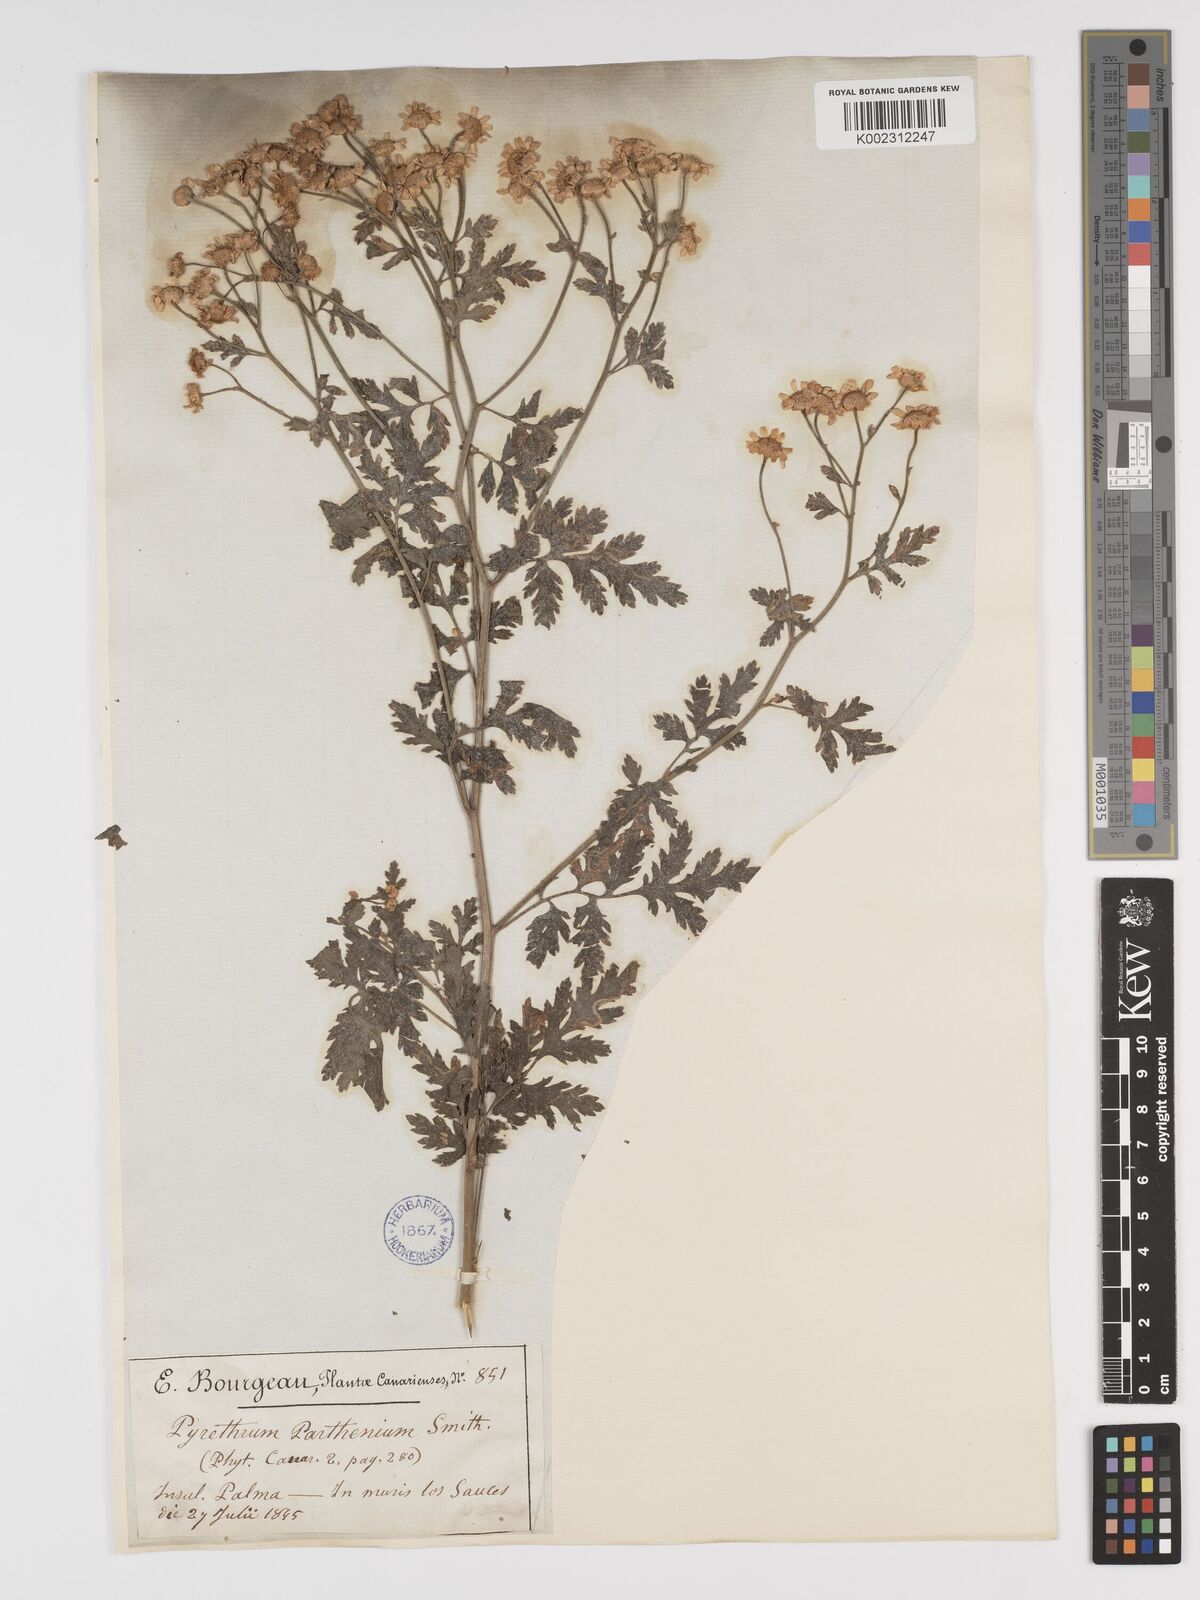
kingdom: Plantae
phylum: Tracheophyta
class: Magnoliopsida
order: Asterales
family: Asteraceae
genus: Tanacetum
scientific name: Tanacetum parthenium
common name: Feverfew
